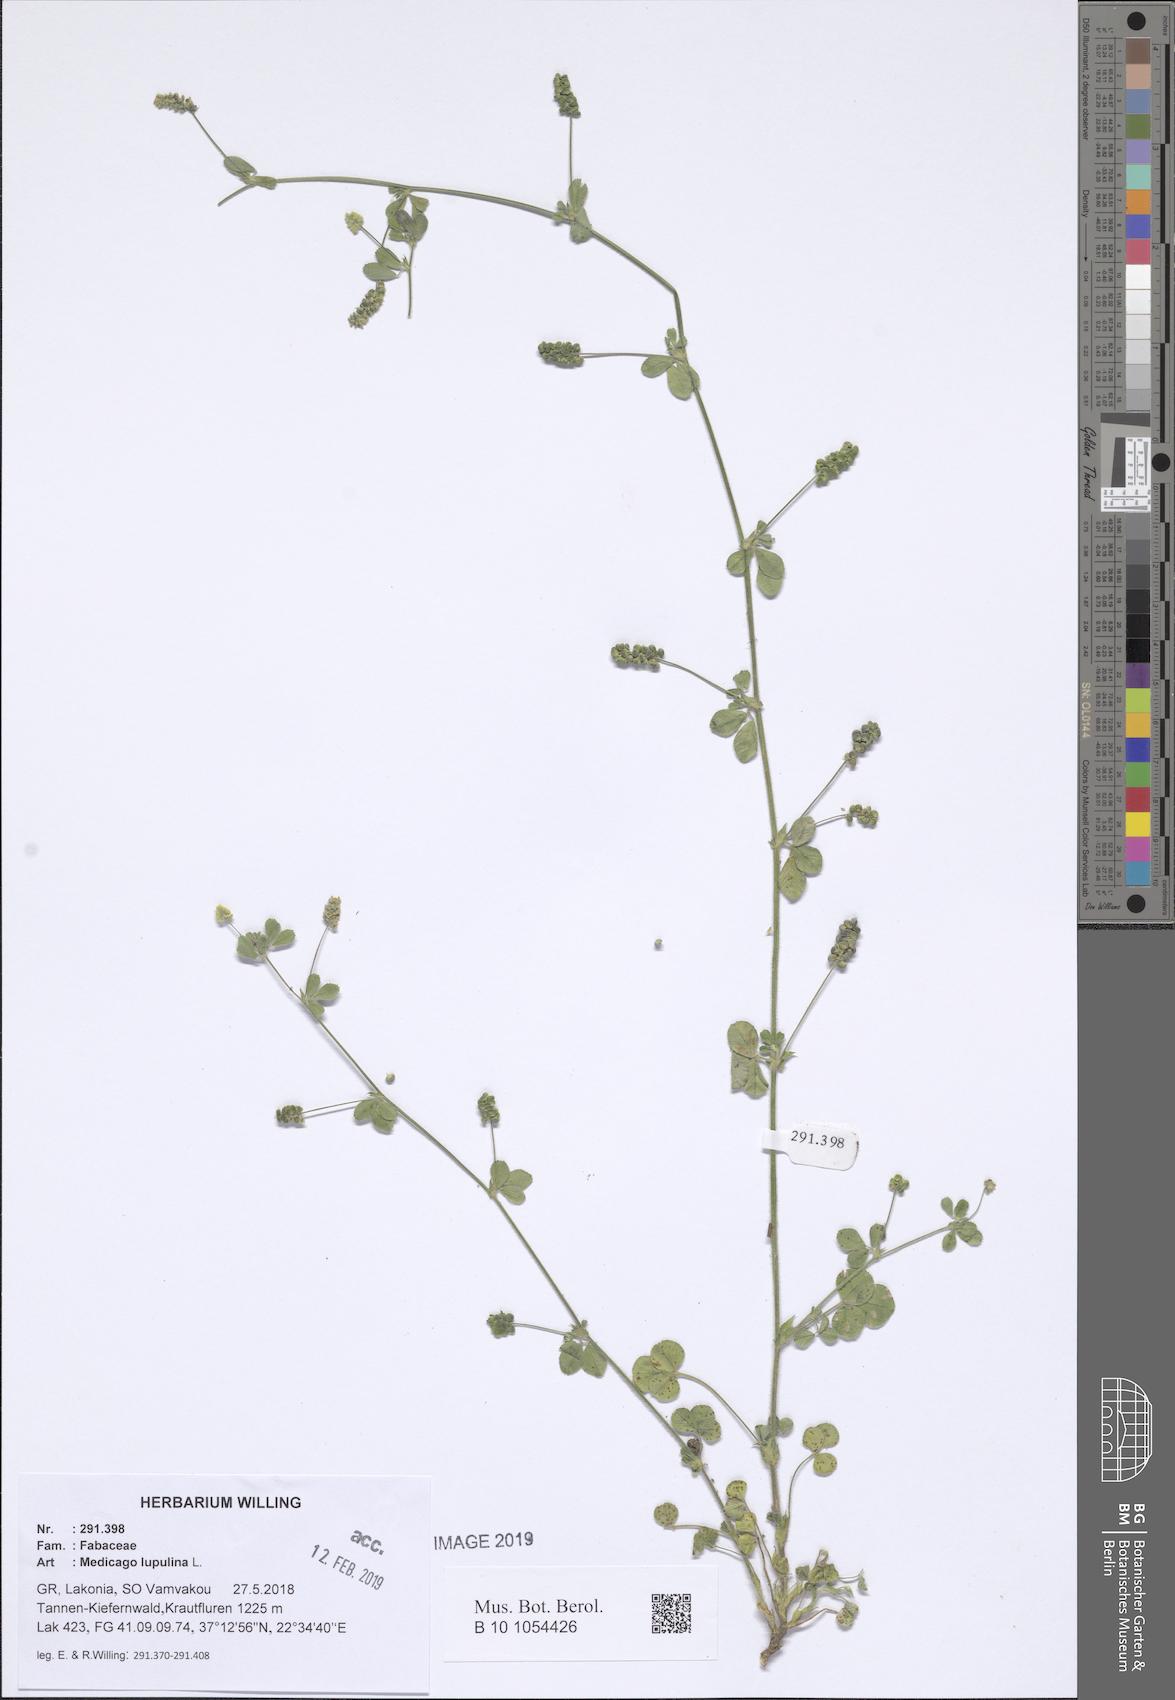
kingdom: Plantae
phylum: Tracheophyta
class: Magnoliopsida
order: Fabales
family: Fabaceae
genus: Medicago
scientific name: Medicago lupulina
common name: Black medick
